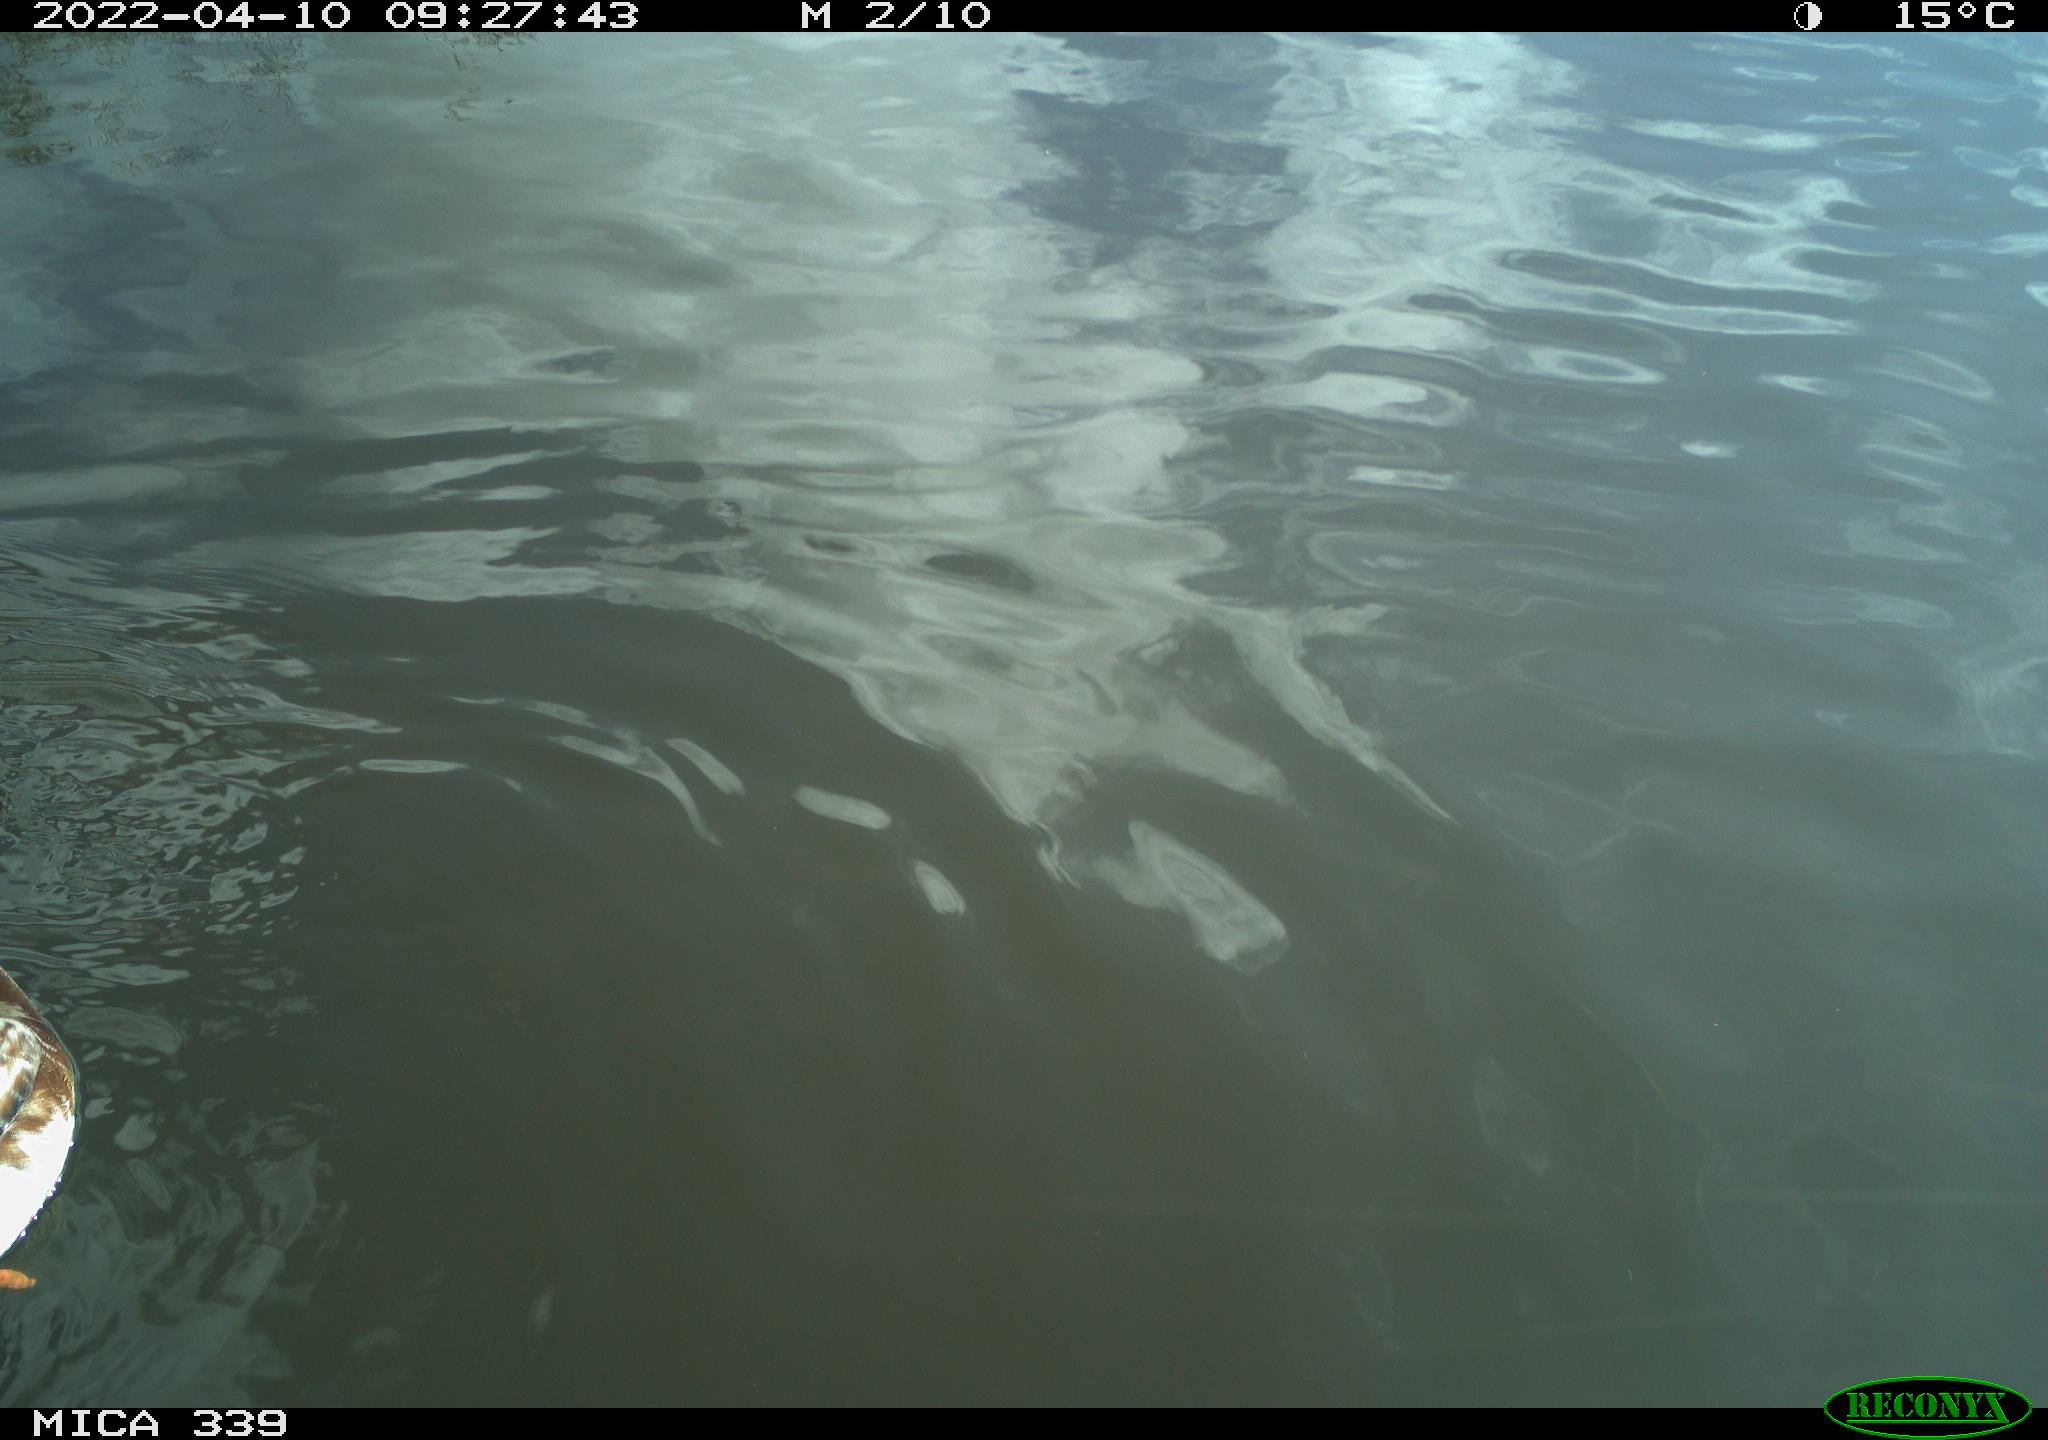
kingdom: Animalia
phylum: Chordata
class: Aves
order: Anseriformes
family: Anatidae
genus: Anas
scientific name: Anas platyrhynchos
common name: Mallard
